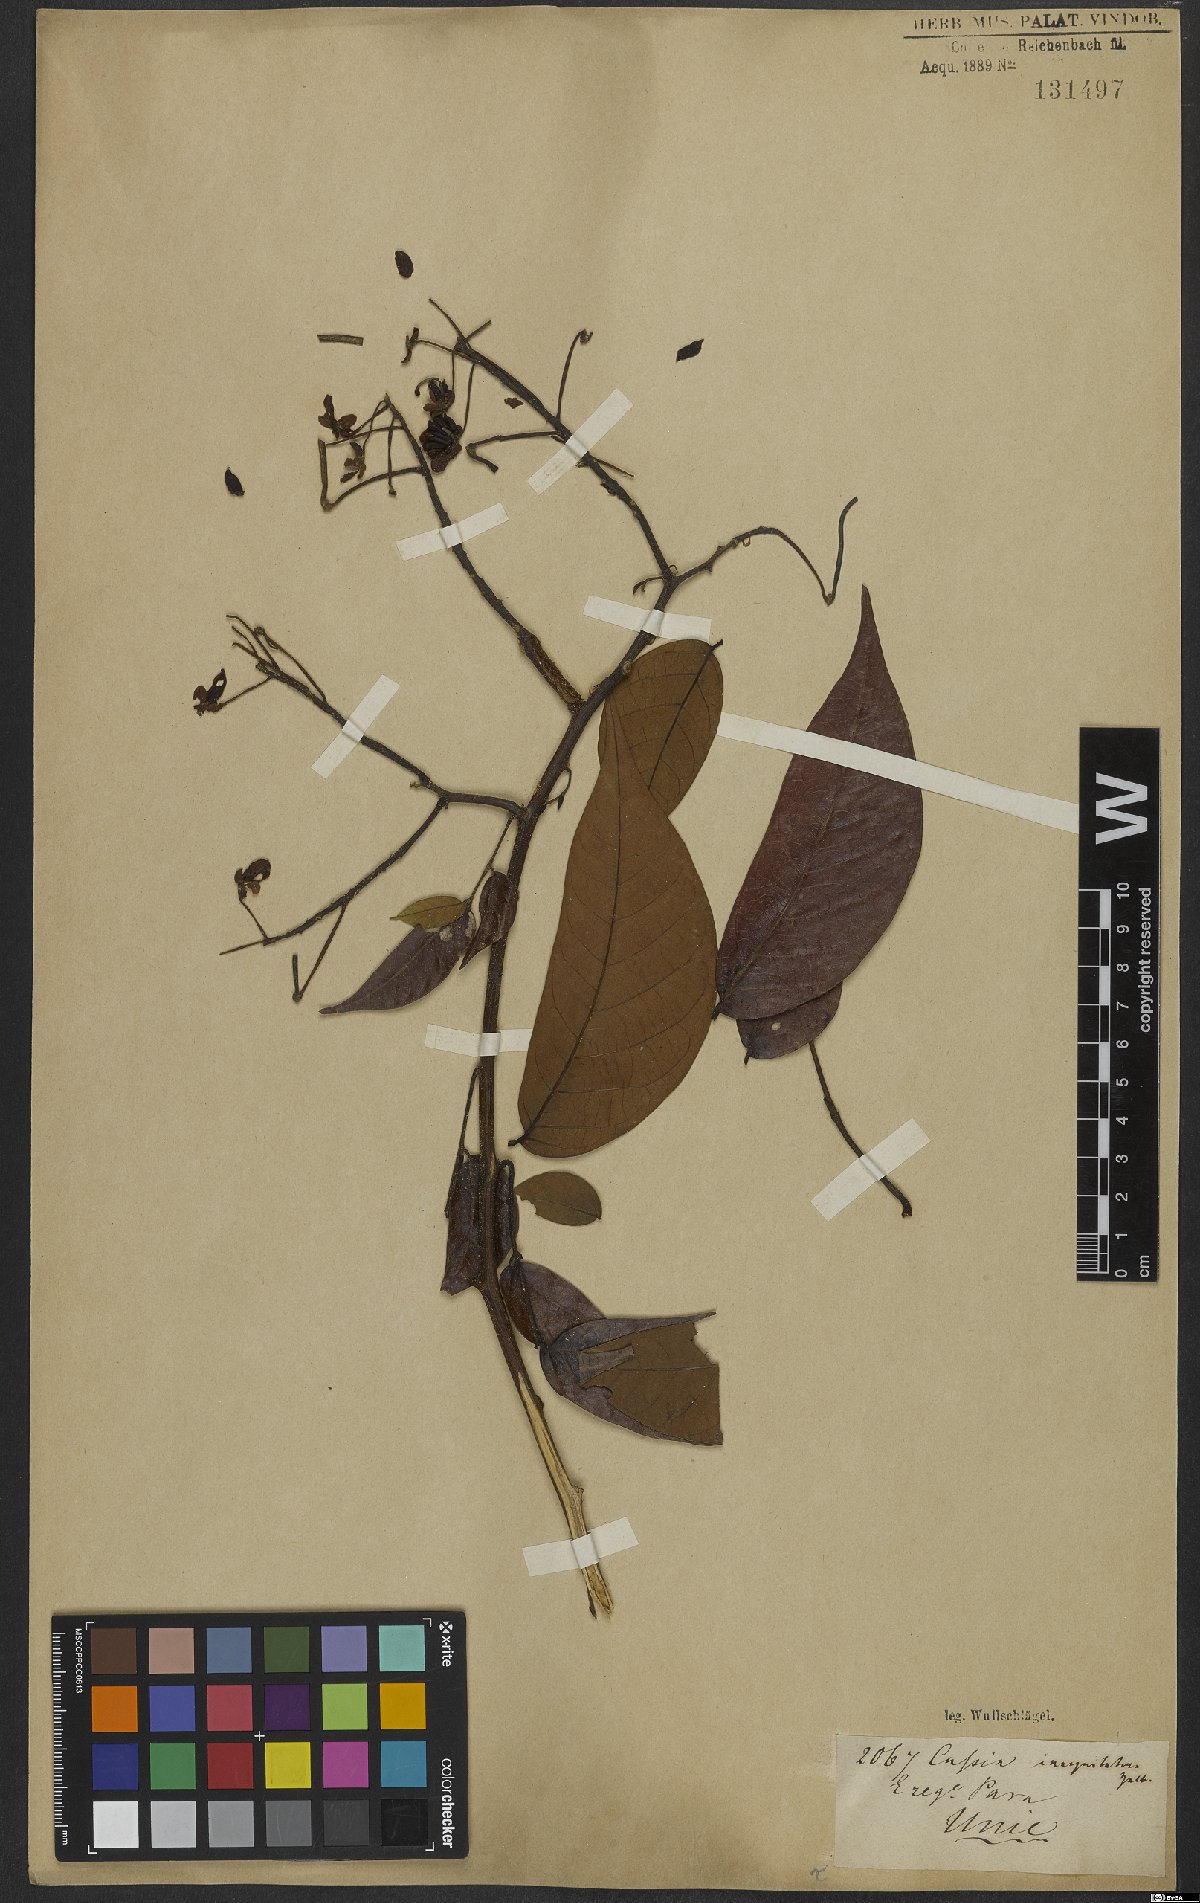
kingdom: Plantae
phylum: Tracheophyta
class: Magnoliopsida
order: Fabales
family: Fabaceae
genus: Senna
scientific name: Senna bacillaris
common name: West indian showertree
